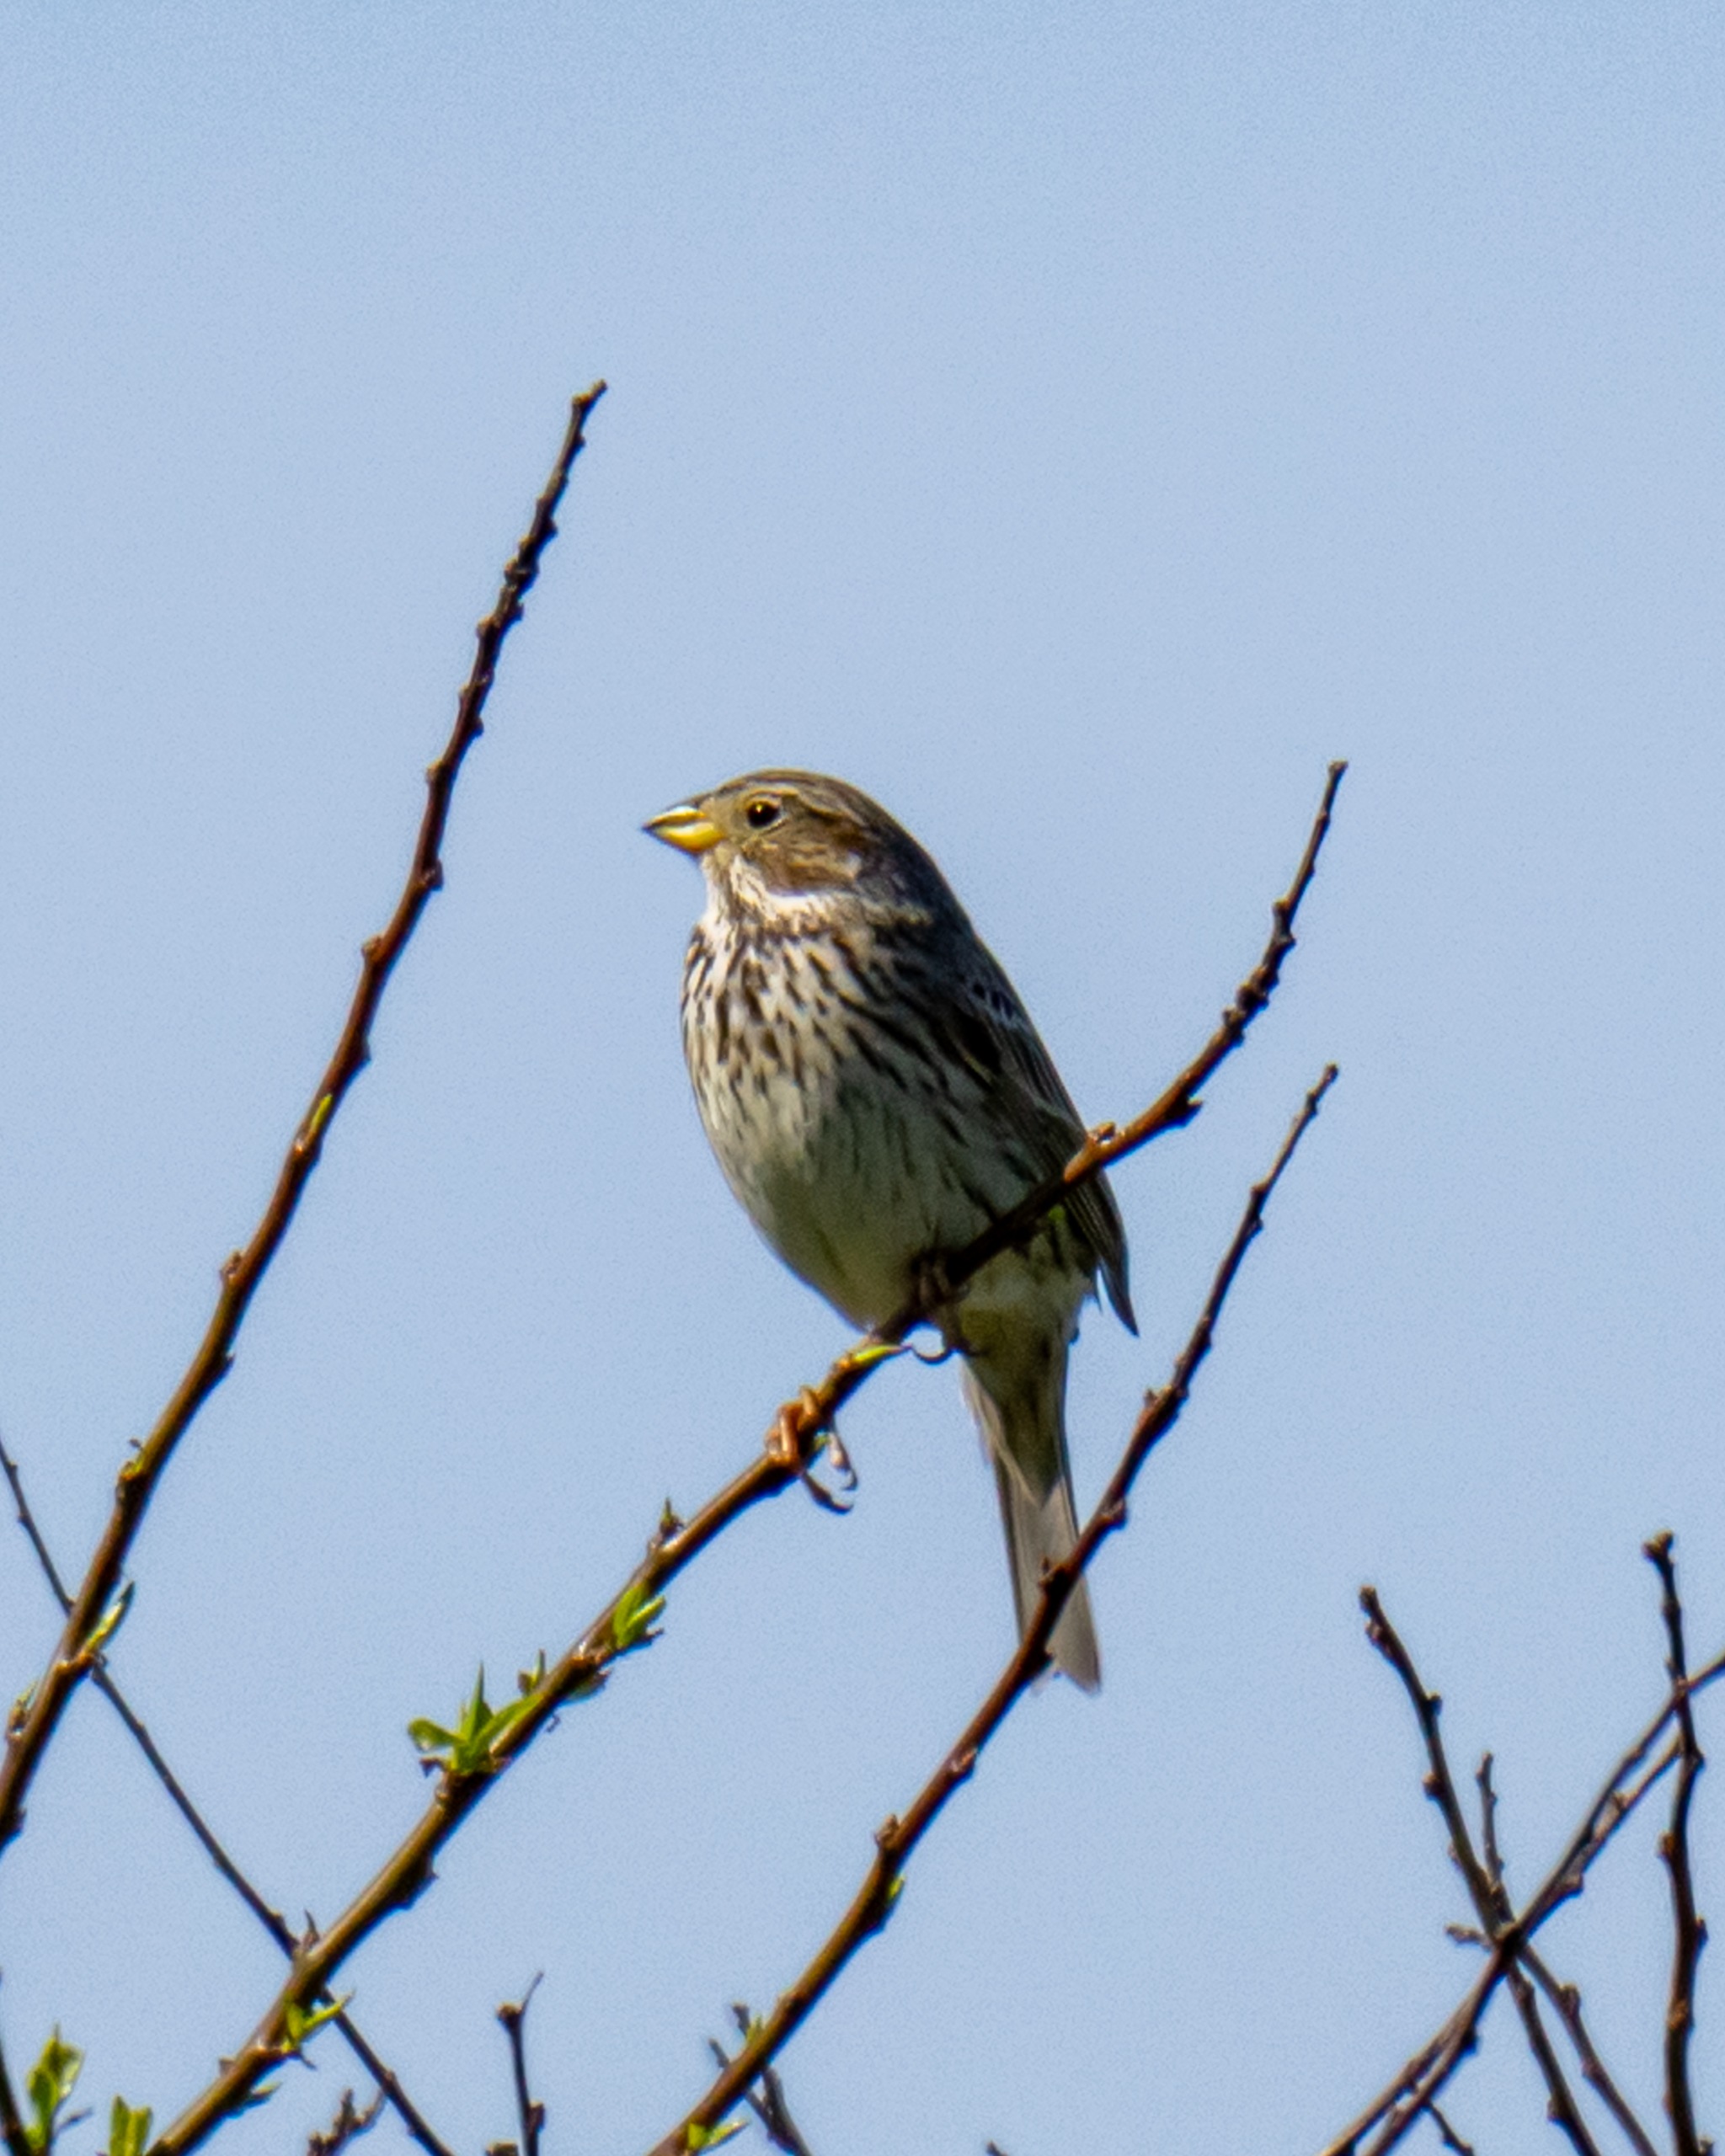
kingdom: Animalia
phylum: Chordata
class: Aves
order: Passeriformes
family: Emberizidae
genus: Emberiza
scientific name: Emberiza calandra
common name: Bomlærke
